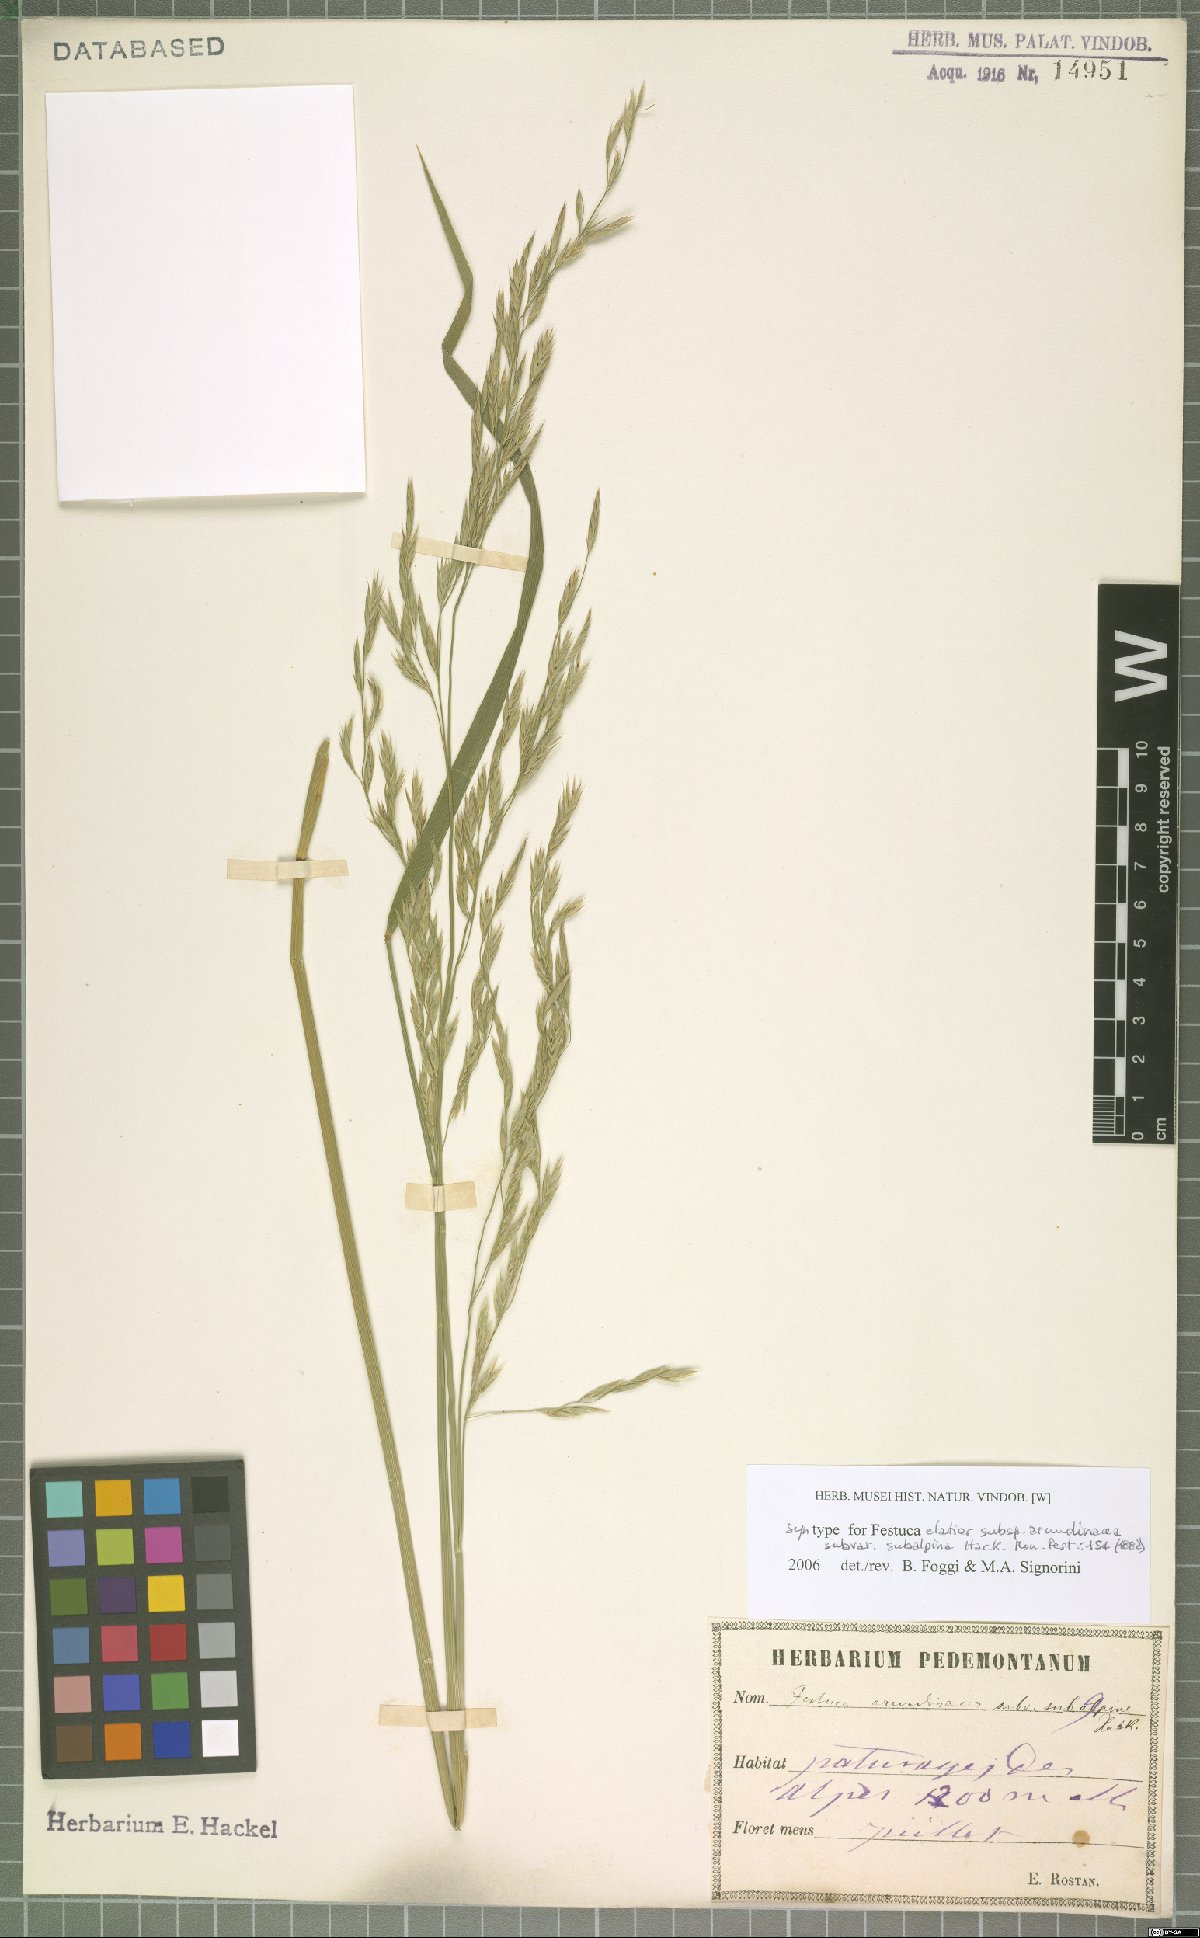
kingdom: Plantae
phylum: Tracheophyta
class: Liliopsida
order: Poales
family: Poaceae
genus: Lolium
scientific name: Lolium arundinaceum
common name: Reed fescue
